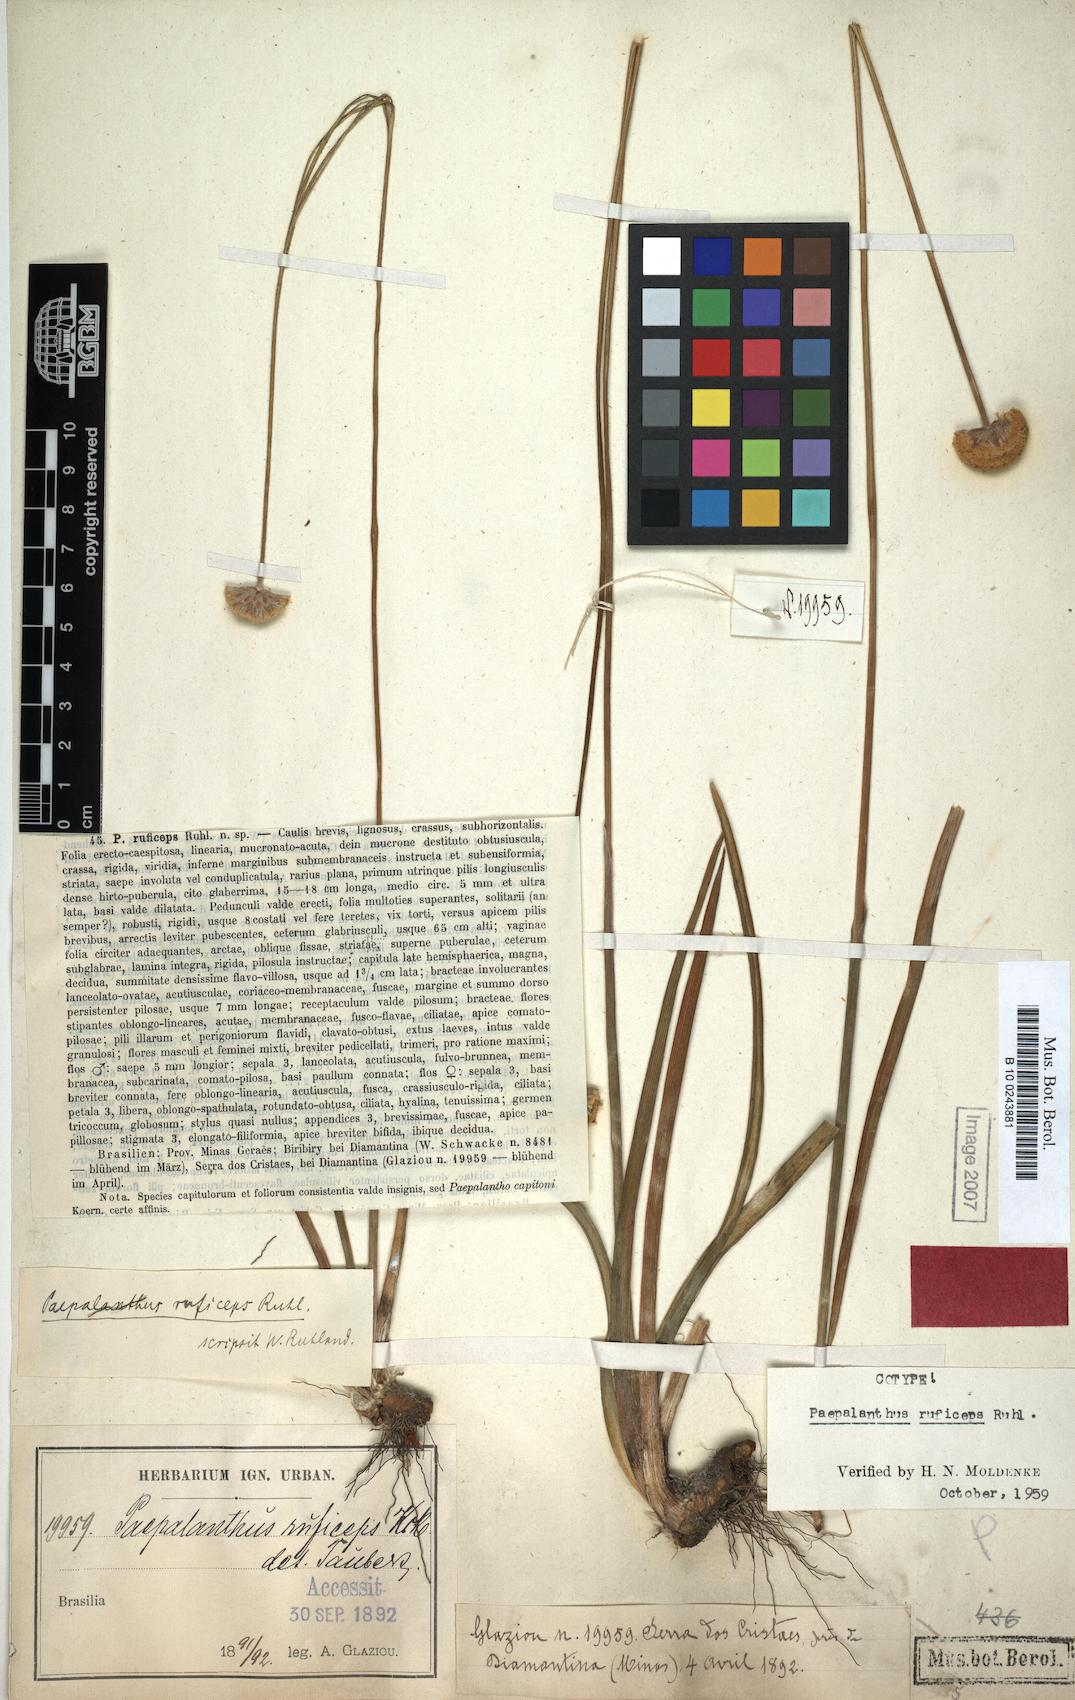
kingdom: Plantae
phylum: Tracheophyta
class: Liliopsida
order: Poales
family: Eriocaulaceae
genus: Paepalanthus
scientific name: Paepalanthus ruficeps
